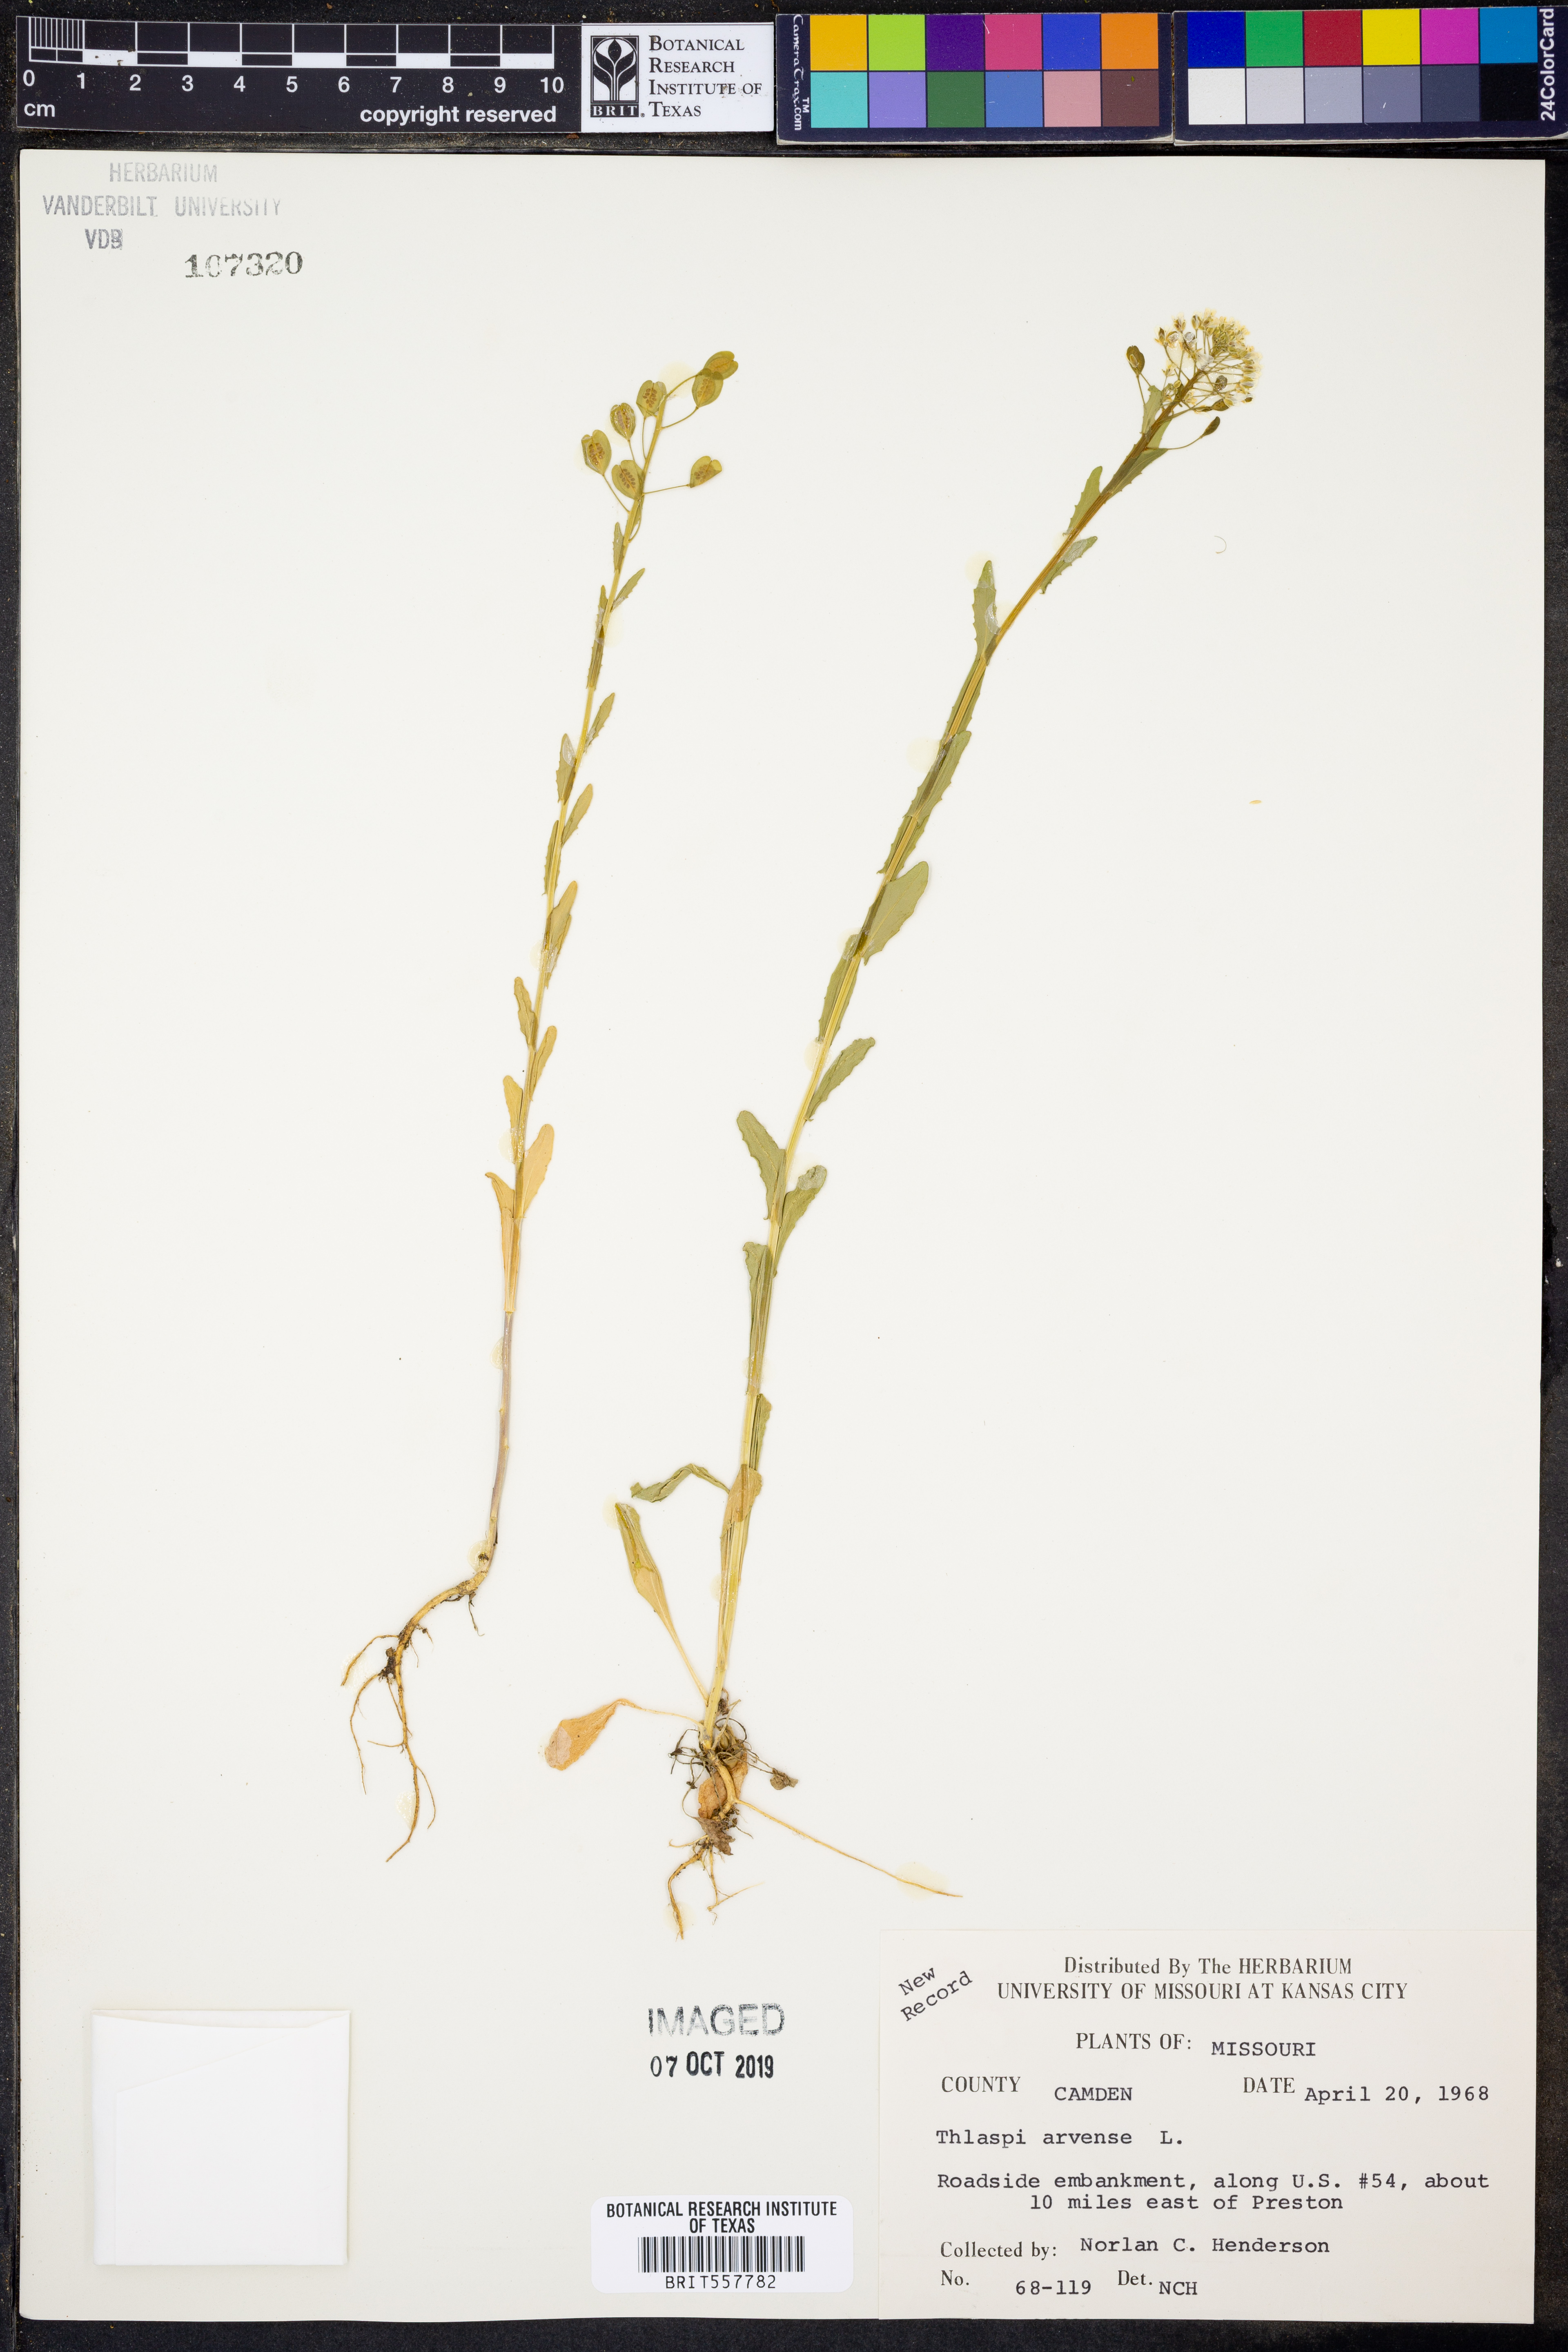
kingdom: Plantae
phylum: Tracheophyta
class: Magnoliopsida
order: Brassicales
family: Brassicaceae
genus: Thlaspi
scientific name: Thlaspi arvense
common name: Field pennycress
